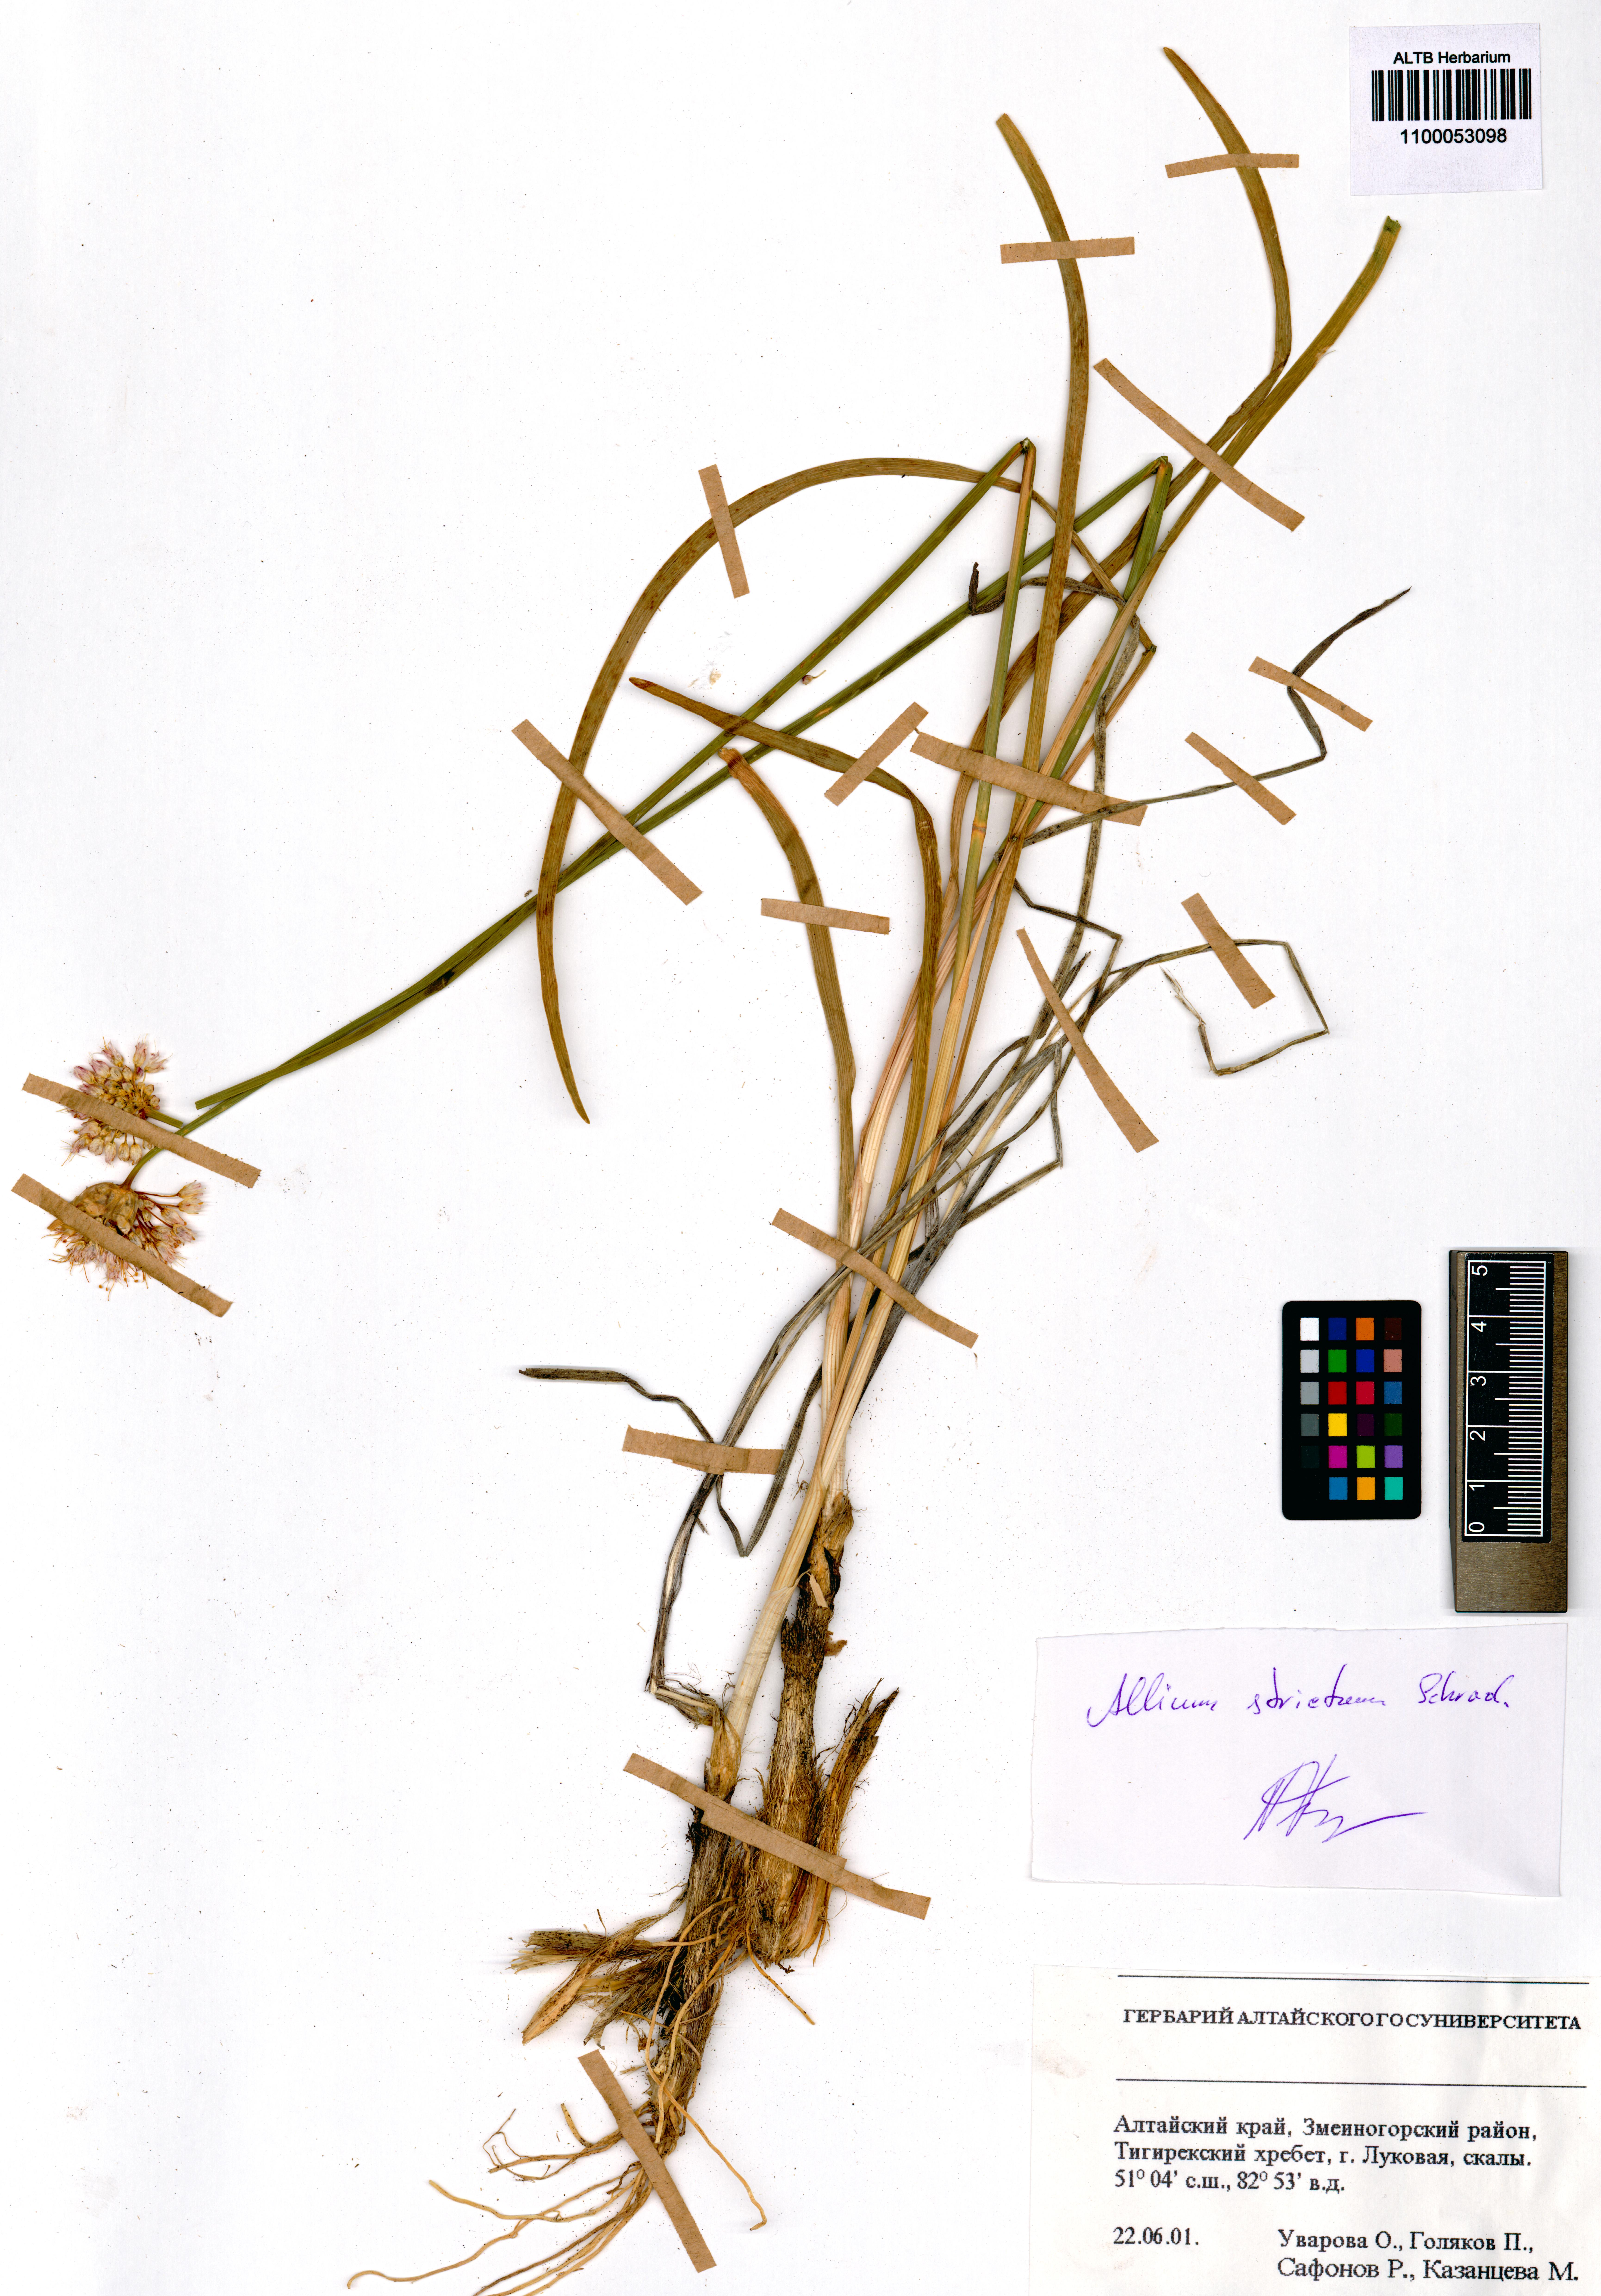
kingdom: Plantae
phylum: Tracheophyta
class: Liliopsida
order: Asparagales
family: Amaryllidaceae
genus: Allium
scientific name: Allium strictum
